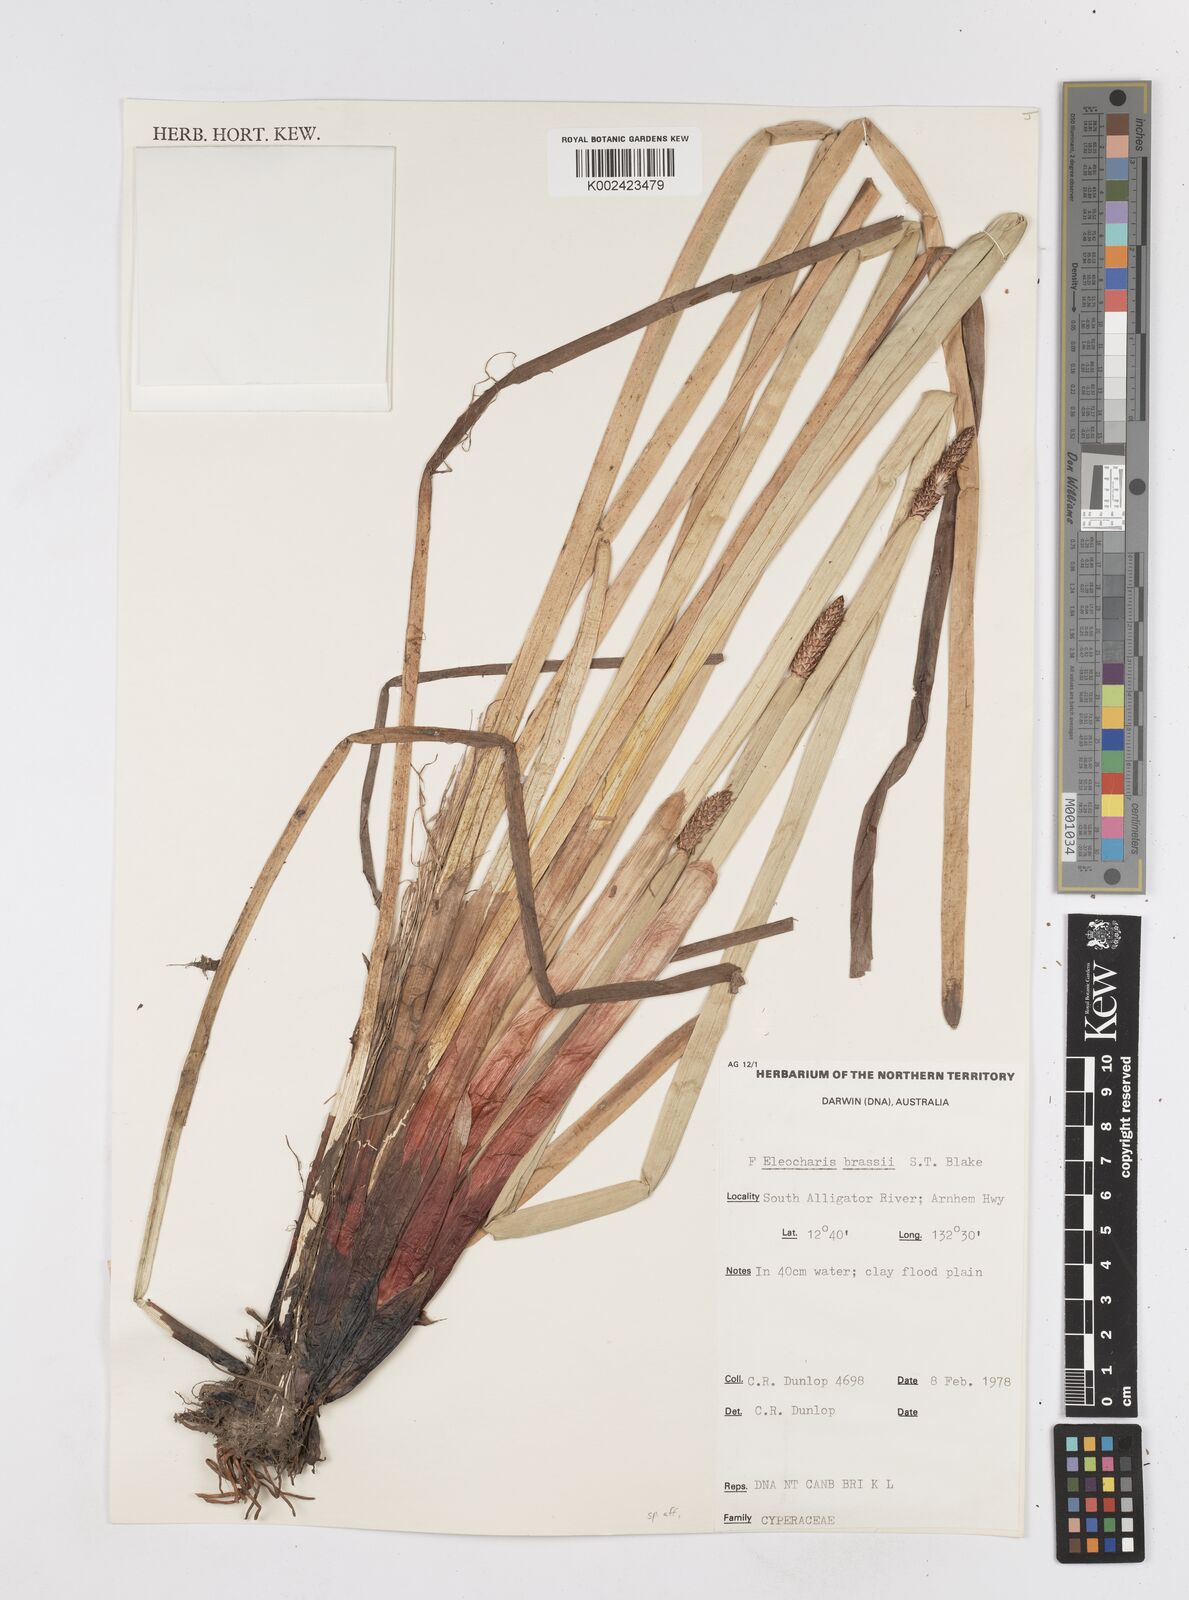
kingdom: Plantae
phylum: Tracheophyta
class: Liliopsida
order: Poales
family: Cyperaceae
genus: Eleocharis
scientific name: Eleocharis brassii
